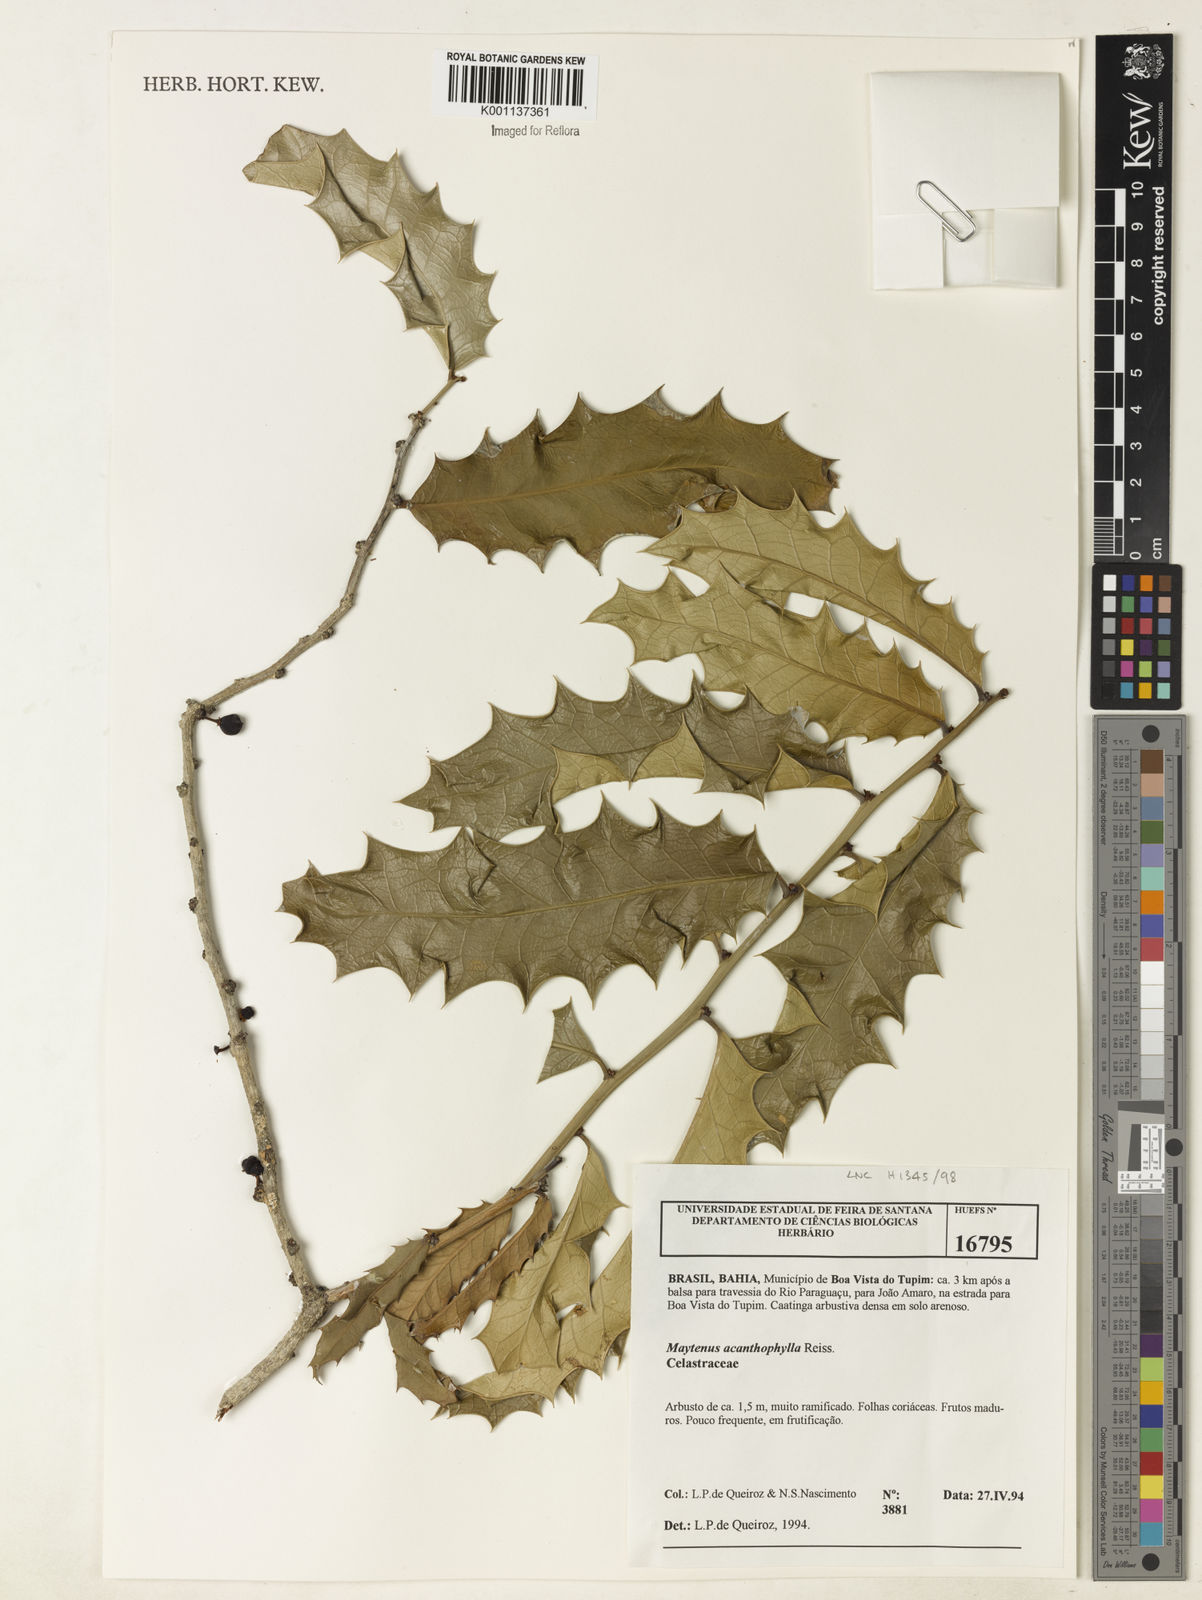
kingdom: Plantae
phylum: Tracheophyta
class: Magnoliopsida
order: Celastrales
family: Celastraceae
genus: Monteverdia
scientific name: Monteverdia acanthophylla
